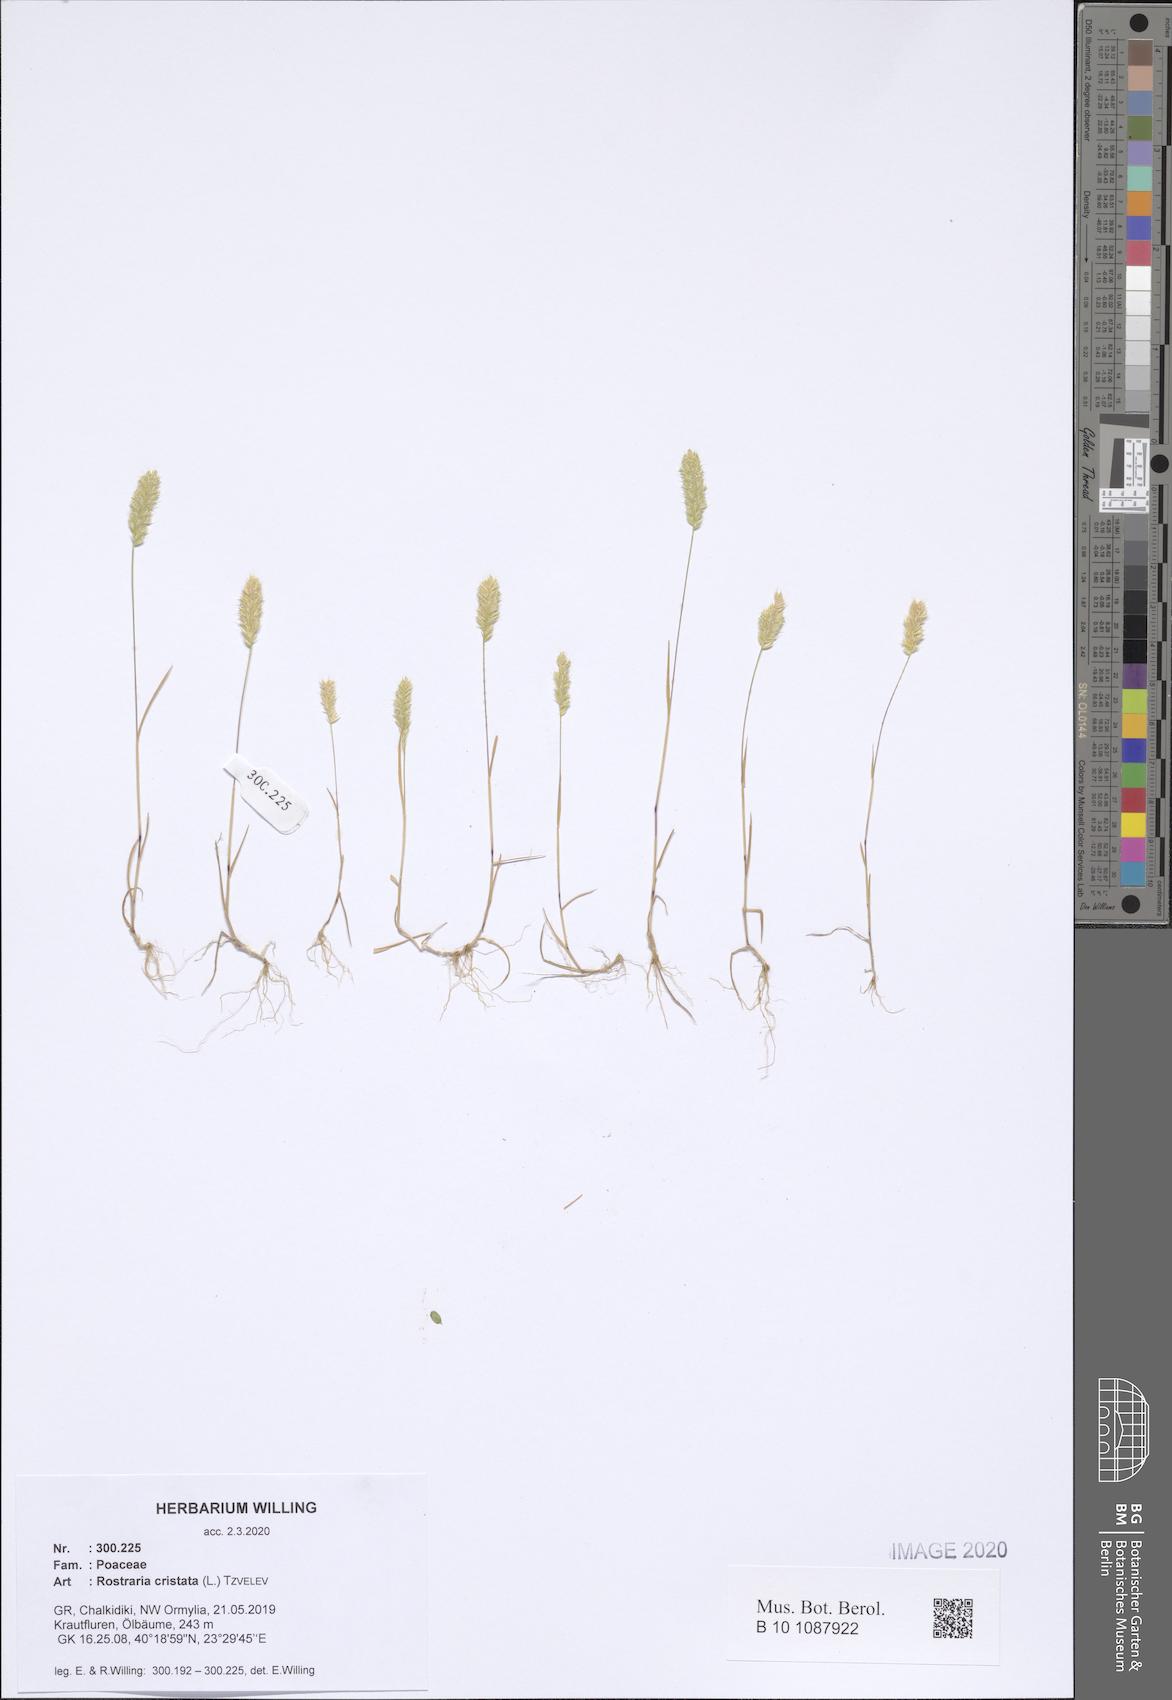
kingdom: Plantae
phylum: Tracheophyta
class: Liliopsida
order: Poales
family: Poaceae
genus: Rostraria
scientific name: Rostraria cristata
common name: Mediterranean hair-grass
